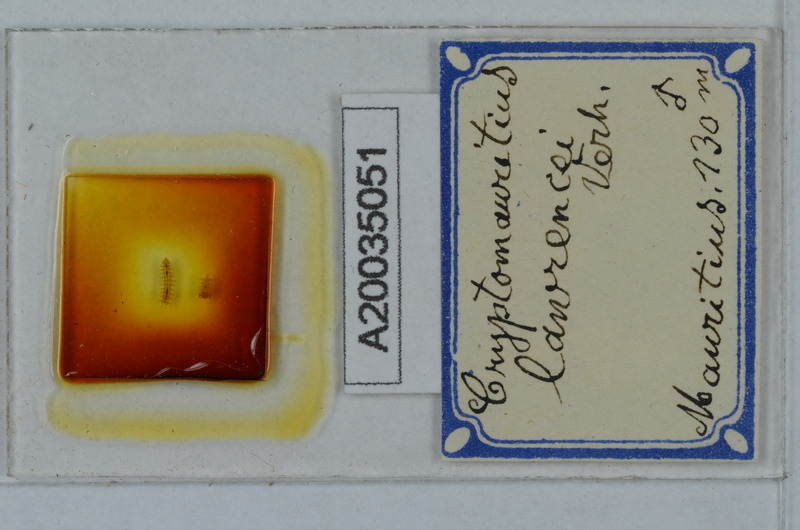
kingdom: Animalia
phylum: Arthropoda
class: Diplopoda
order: Polydesmida
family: Cryptodesmidae
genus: Cryptodesmus
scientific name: Cryptodesmus
